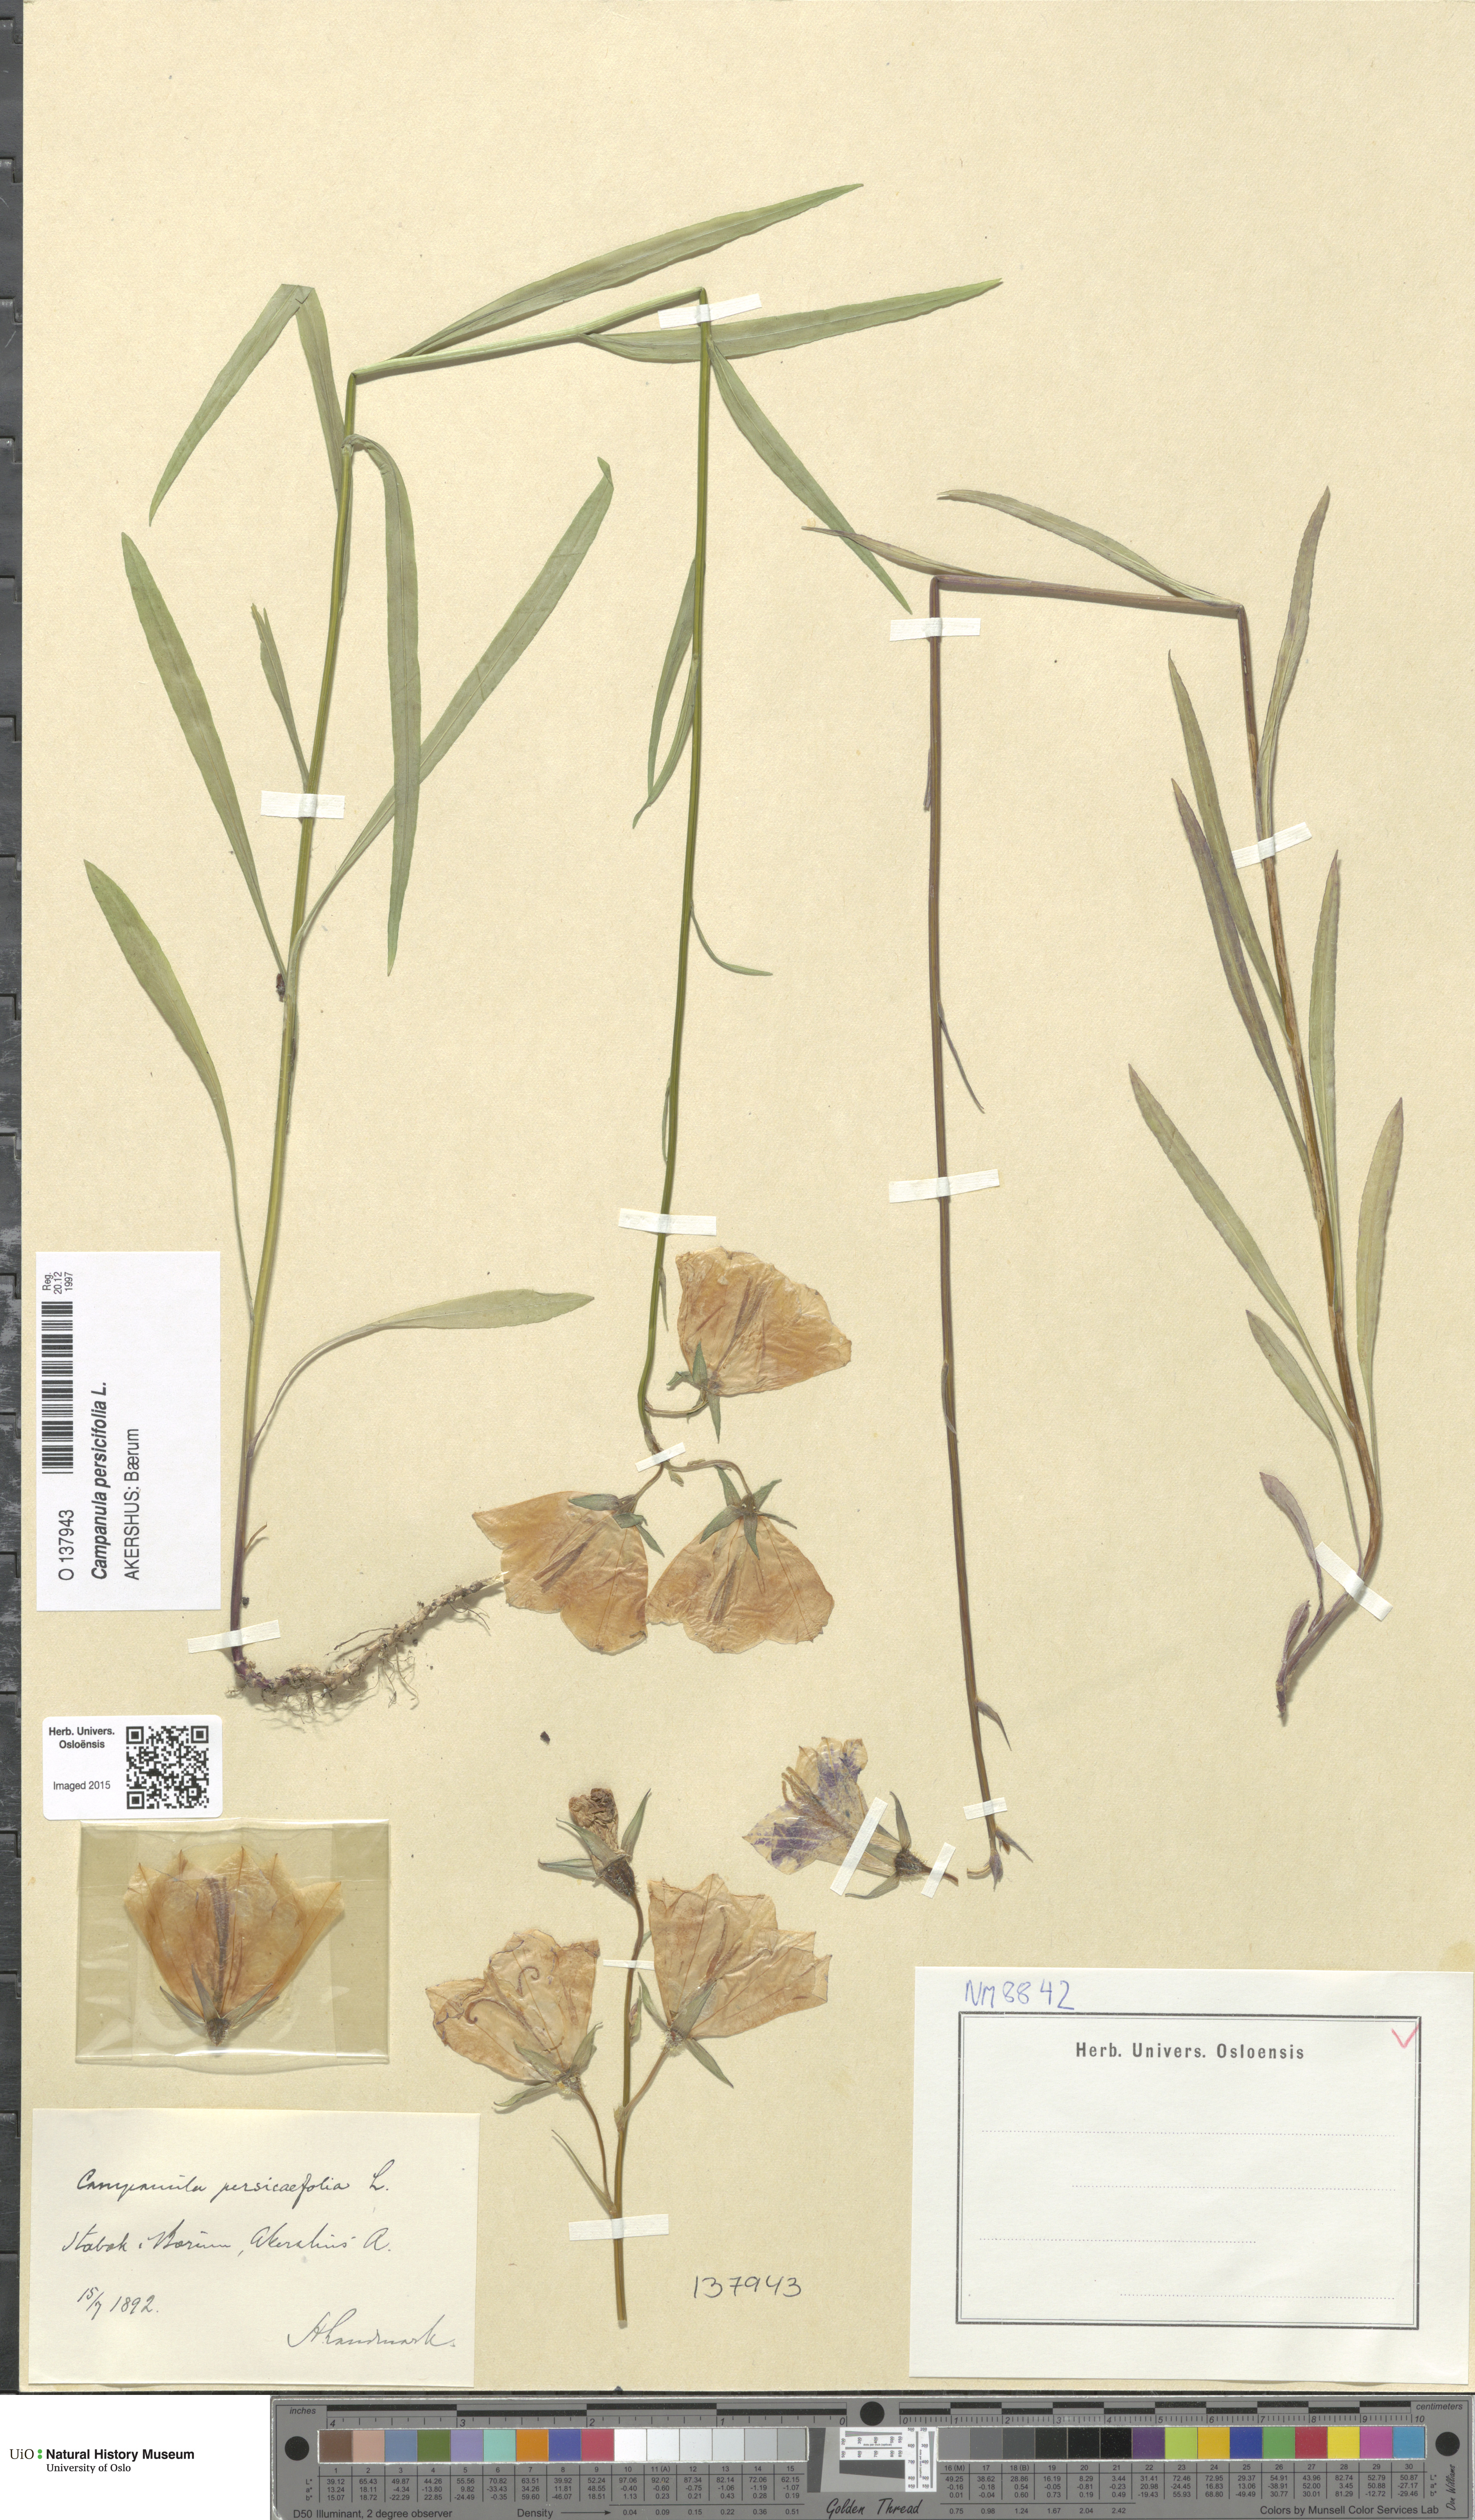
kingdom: Plantae
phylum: Tracheophyta
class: Magnoliopsida
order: Asterales
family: Campanulaceae
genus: Campanula
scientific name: Campanula persicifolia
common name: Peach-leaved bellflower
